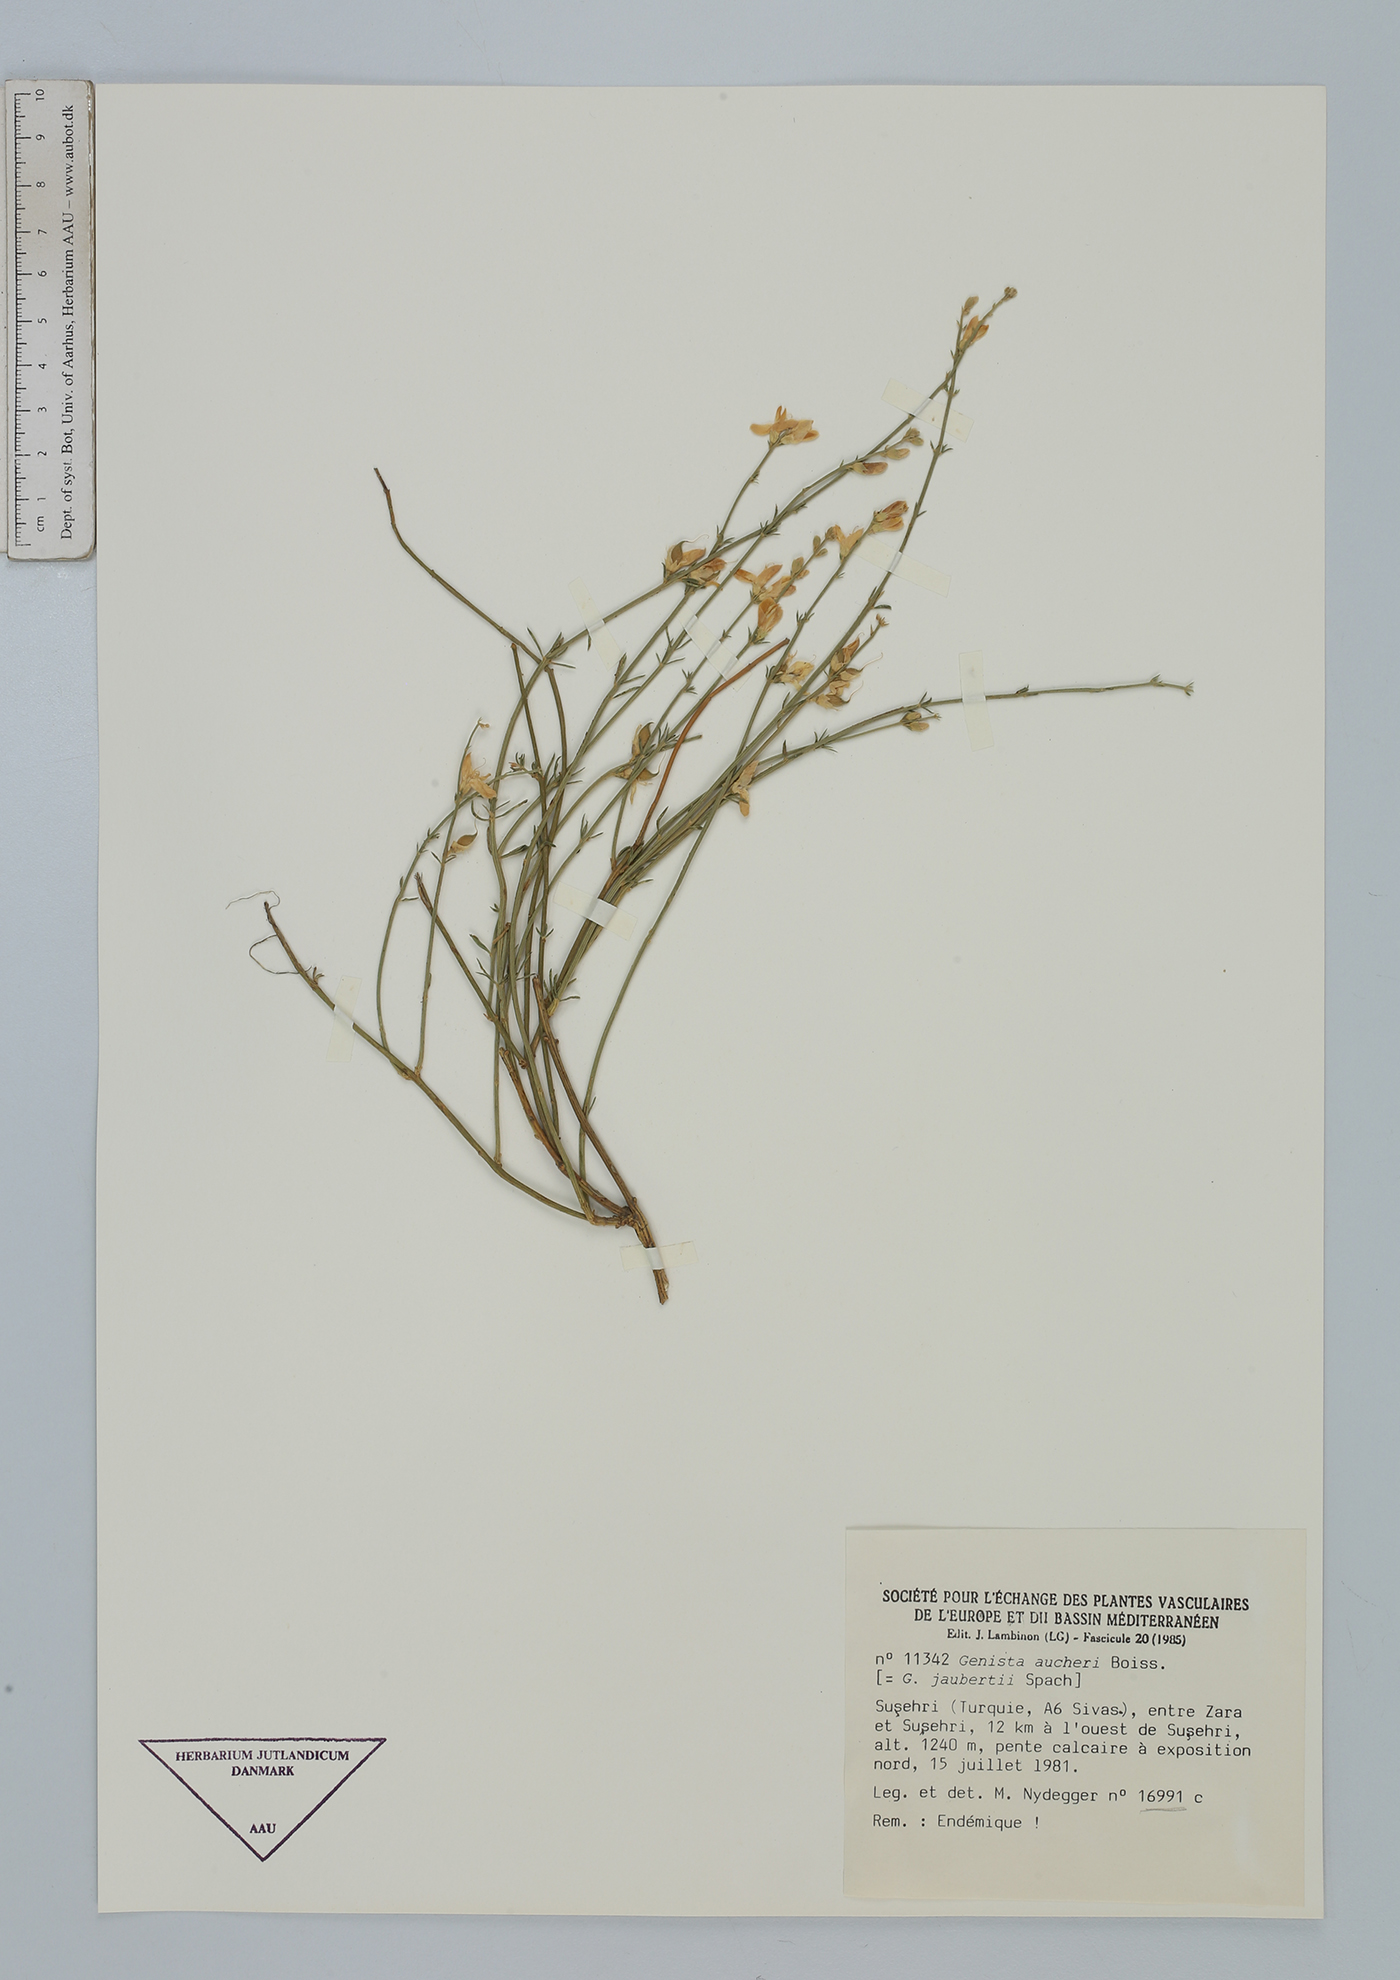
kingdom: Plantae
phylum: Tracheophyta
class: Magnoliopsida
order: Fabales
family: Fabaceae
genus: Genista
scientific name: Genista aucheri
